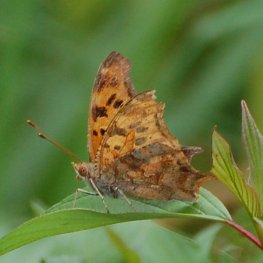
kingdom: Animalia
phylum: Arthropoda
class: Insecta
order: Lepidoptera
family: Nymphalidae
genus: Polygonia
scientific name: Polygonia interrogationis
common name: Question Mark
